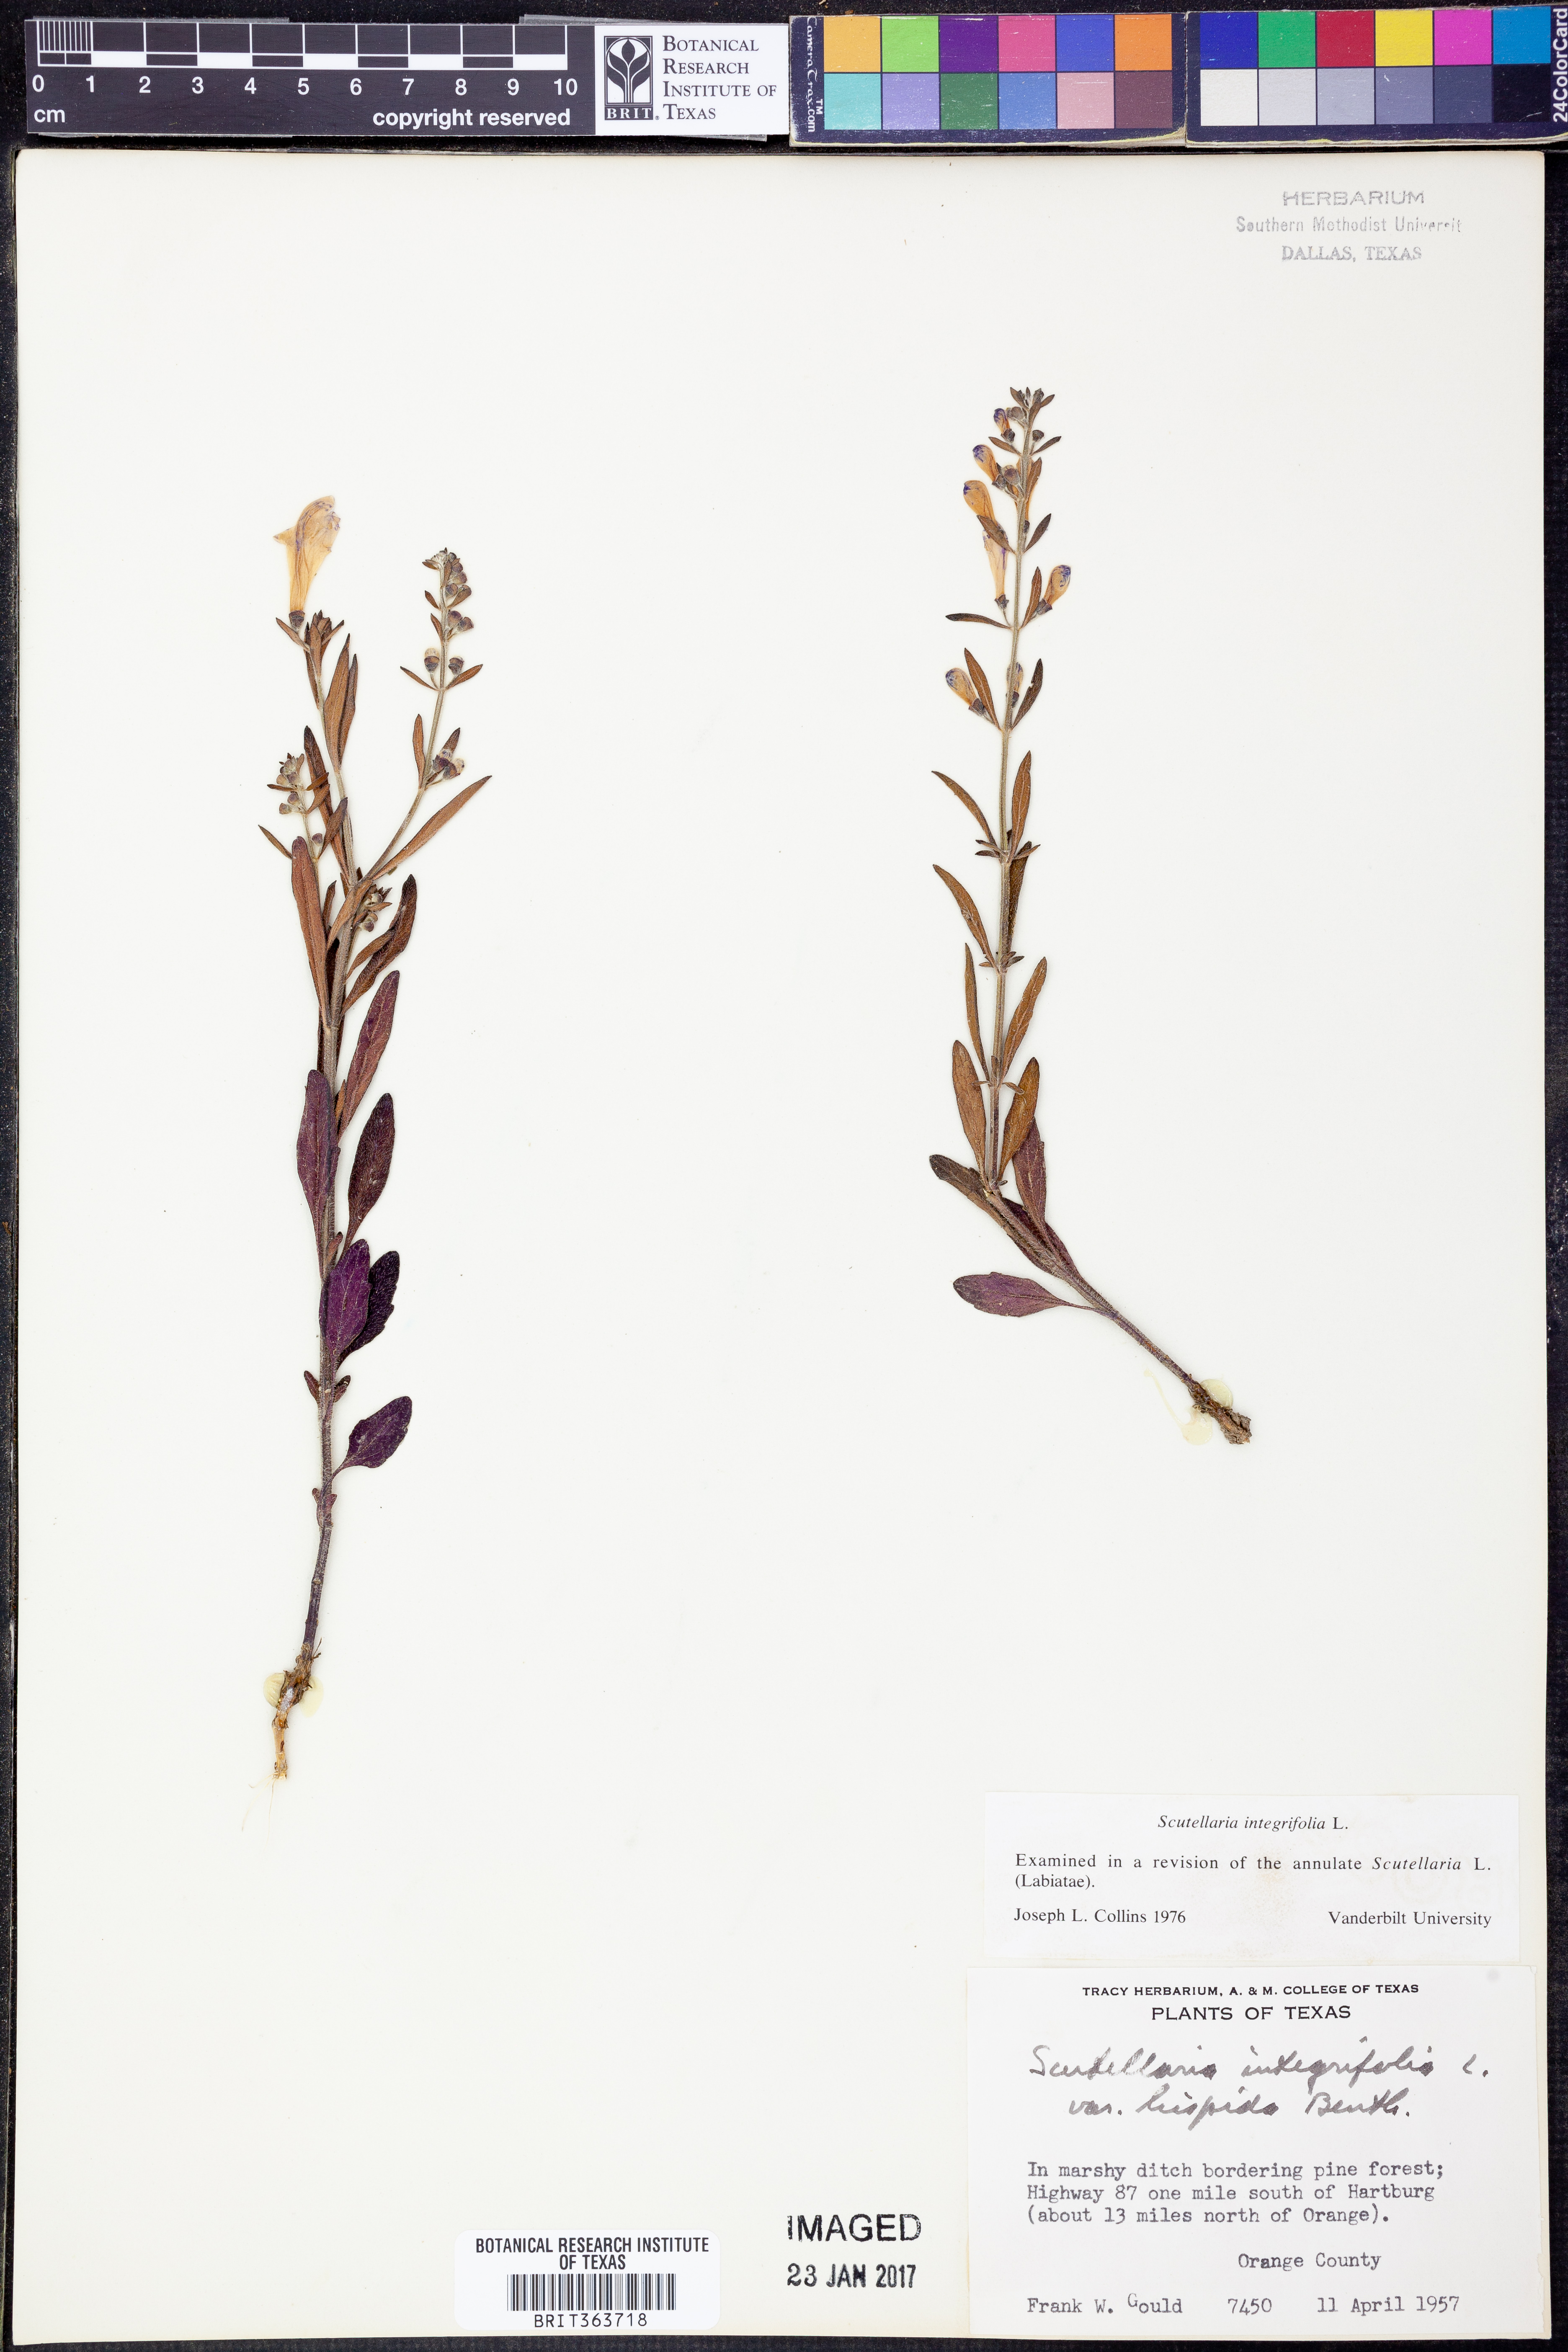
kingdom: Plantae
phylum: Tracheophyta
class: Magnoliopsida
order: Lamiales
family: Lamiaceae
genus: Scutellaria
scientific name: Scutellaria integrifolia
